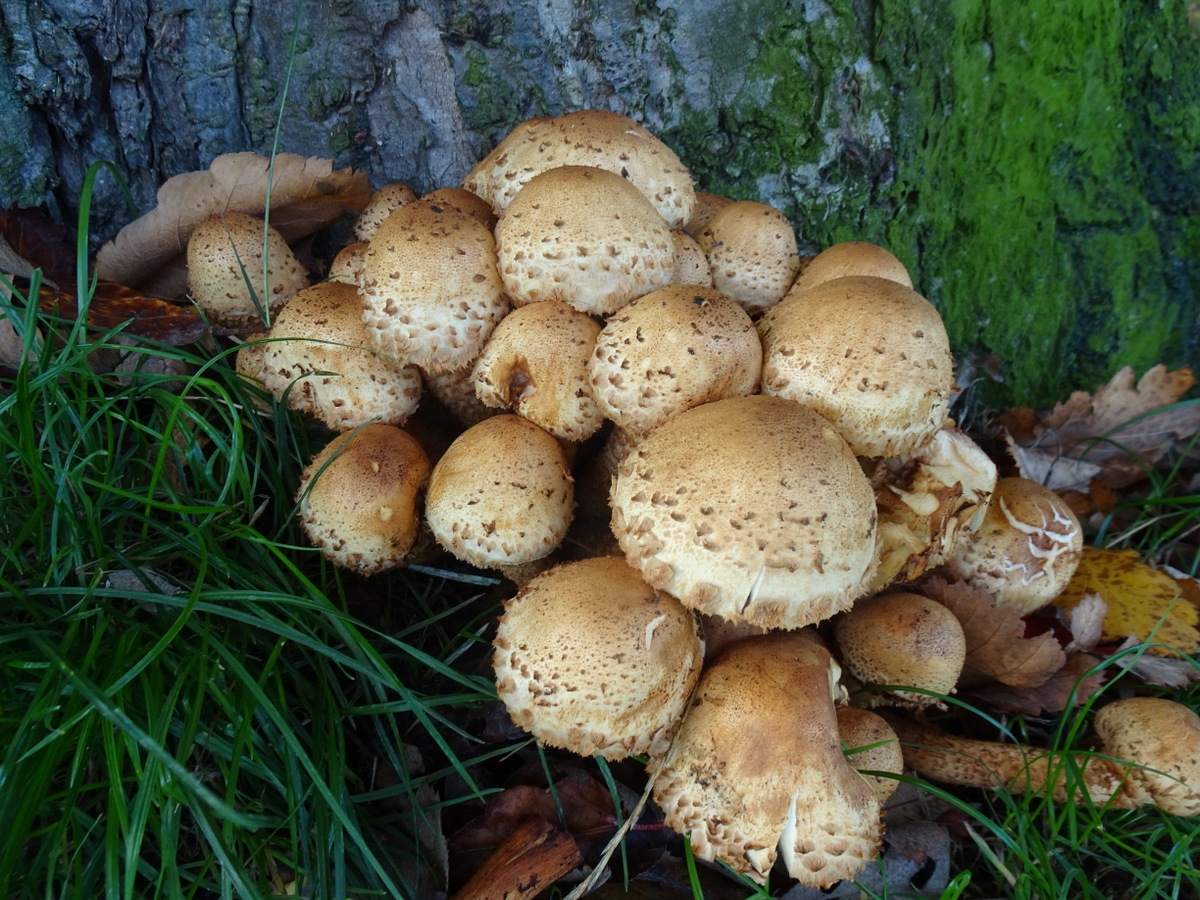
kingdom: Fungi
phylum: Basidiomycota
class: Agaricomycetes
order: Agaricales
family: Strophariaceae
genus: Pholiota
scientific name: Pholiota squarrosa
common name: krumskællet skælhat
